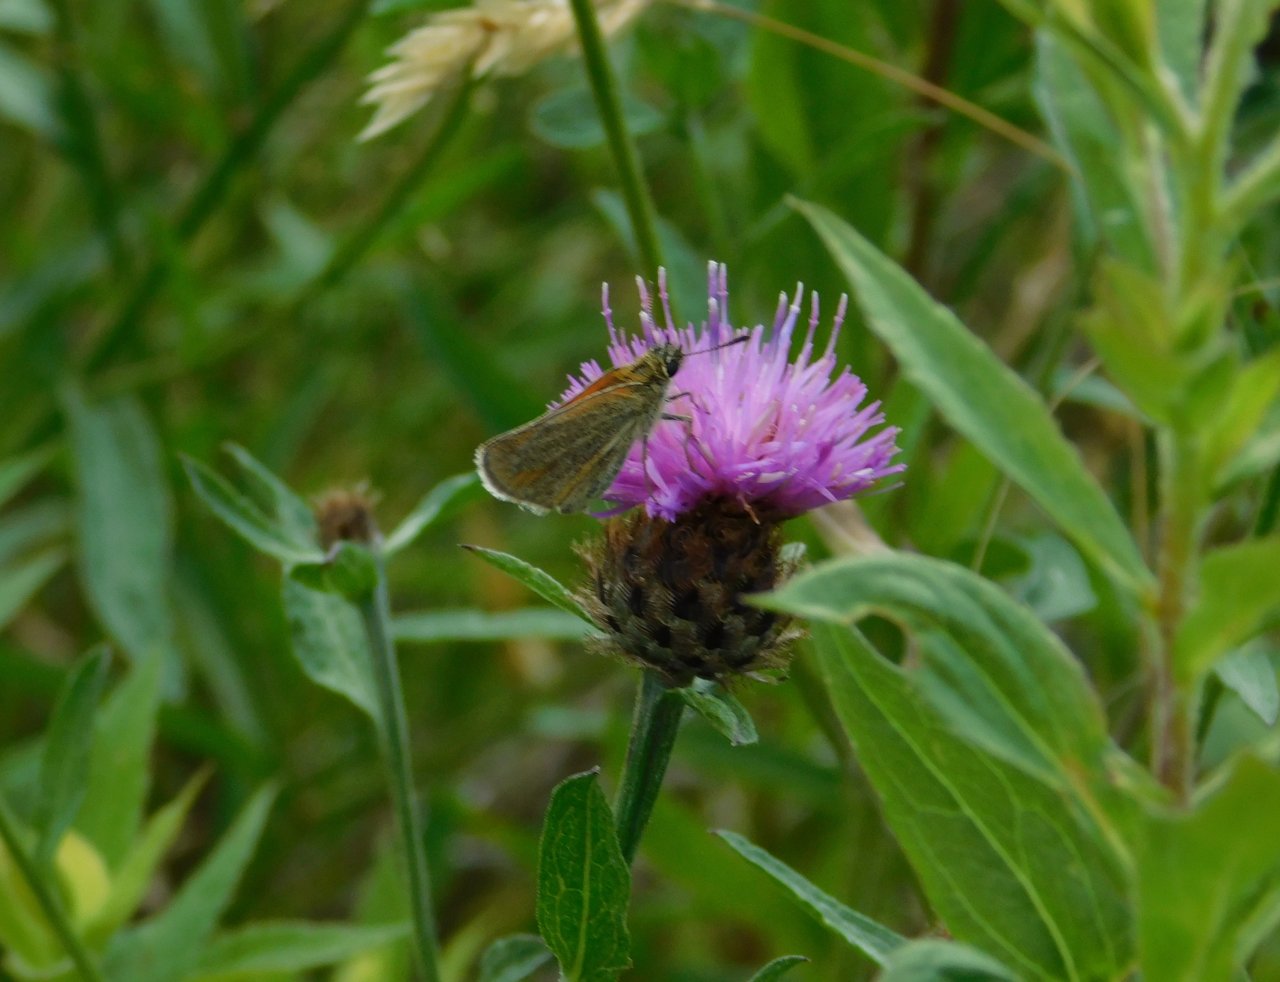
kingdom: Animalia
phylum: Arthropoda
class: Insecta
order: Lepidoptera
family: Hesperiidae
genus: Thymelicus
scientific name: Thymelicus lineola
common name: European Skipper
